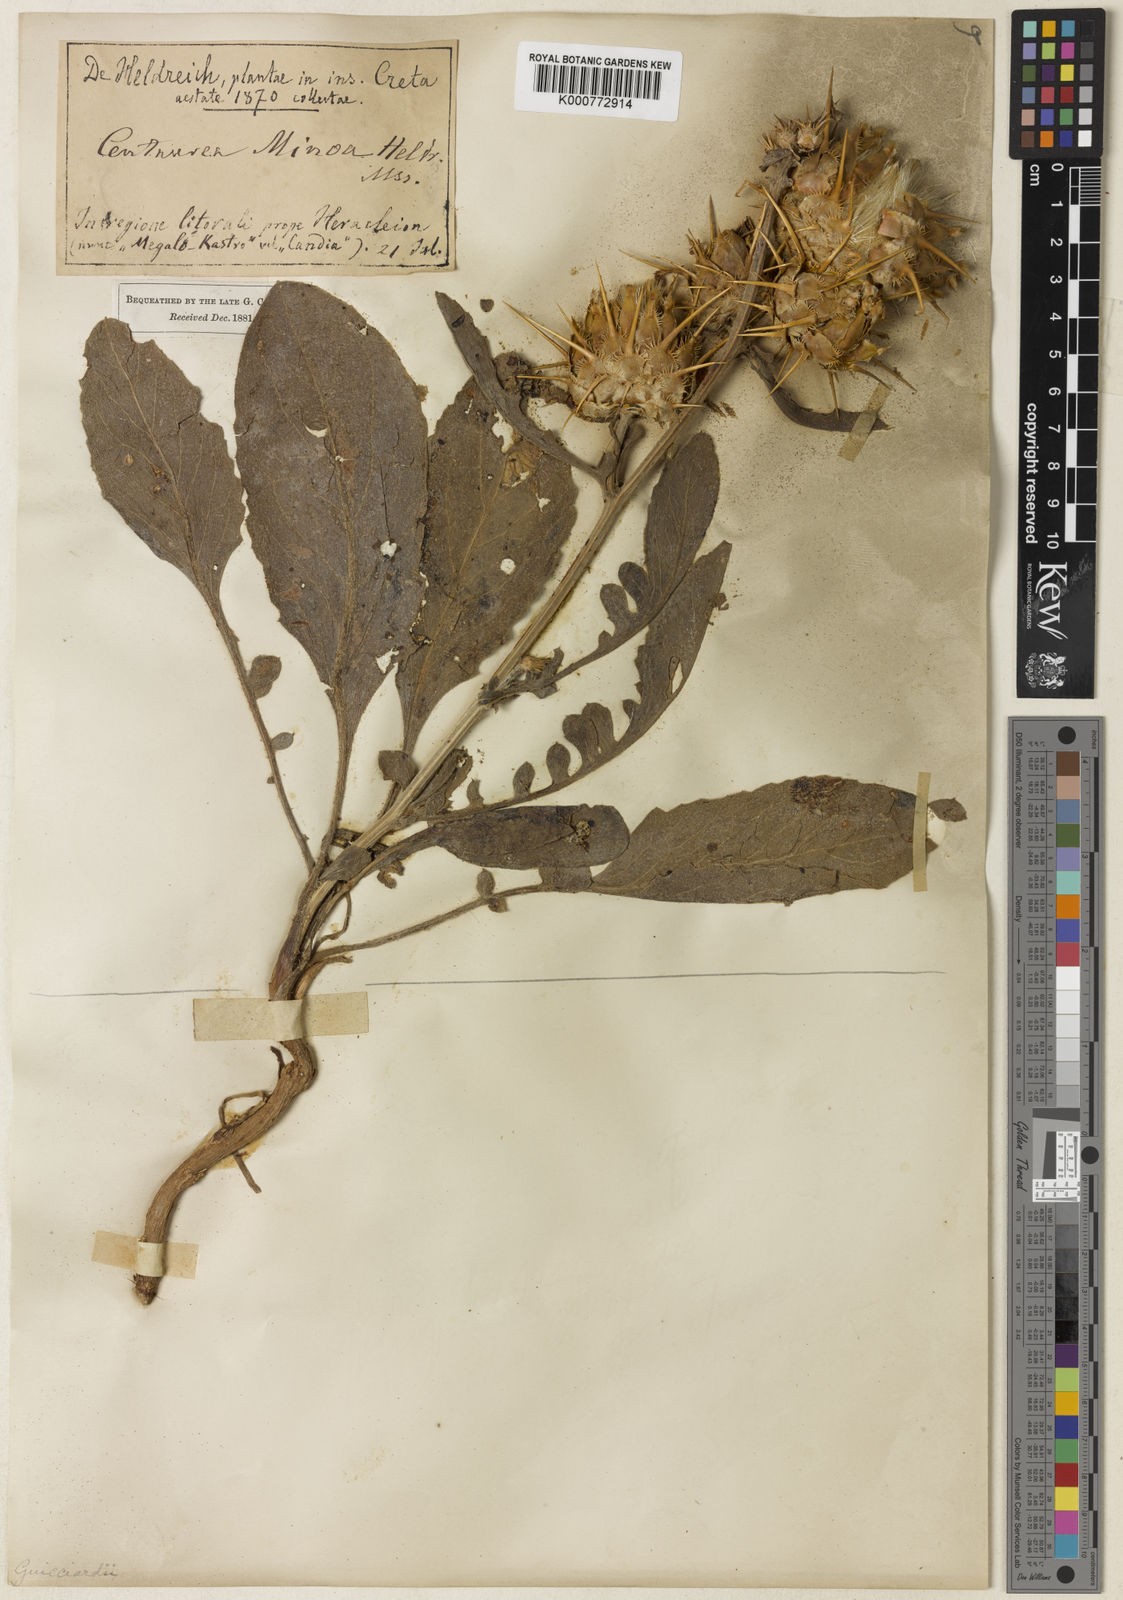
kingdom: Plantae
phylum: Tracheophyta
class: Magnoliopsida
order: Asterales
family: Asteraceae
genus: Centaurea
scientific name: Centaurea spruneri
